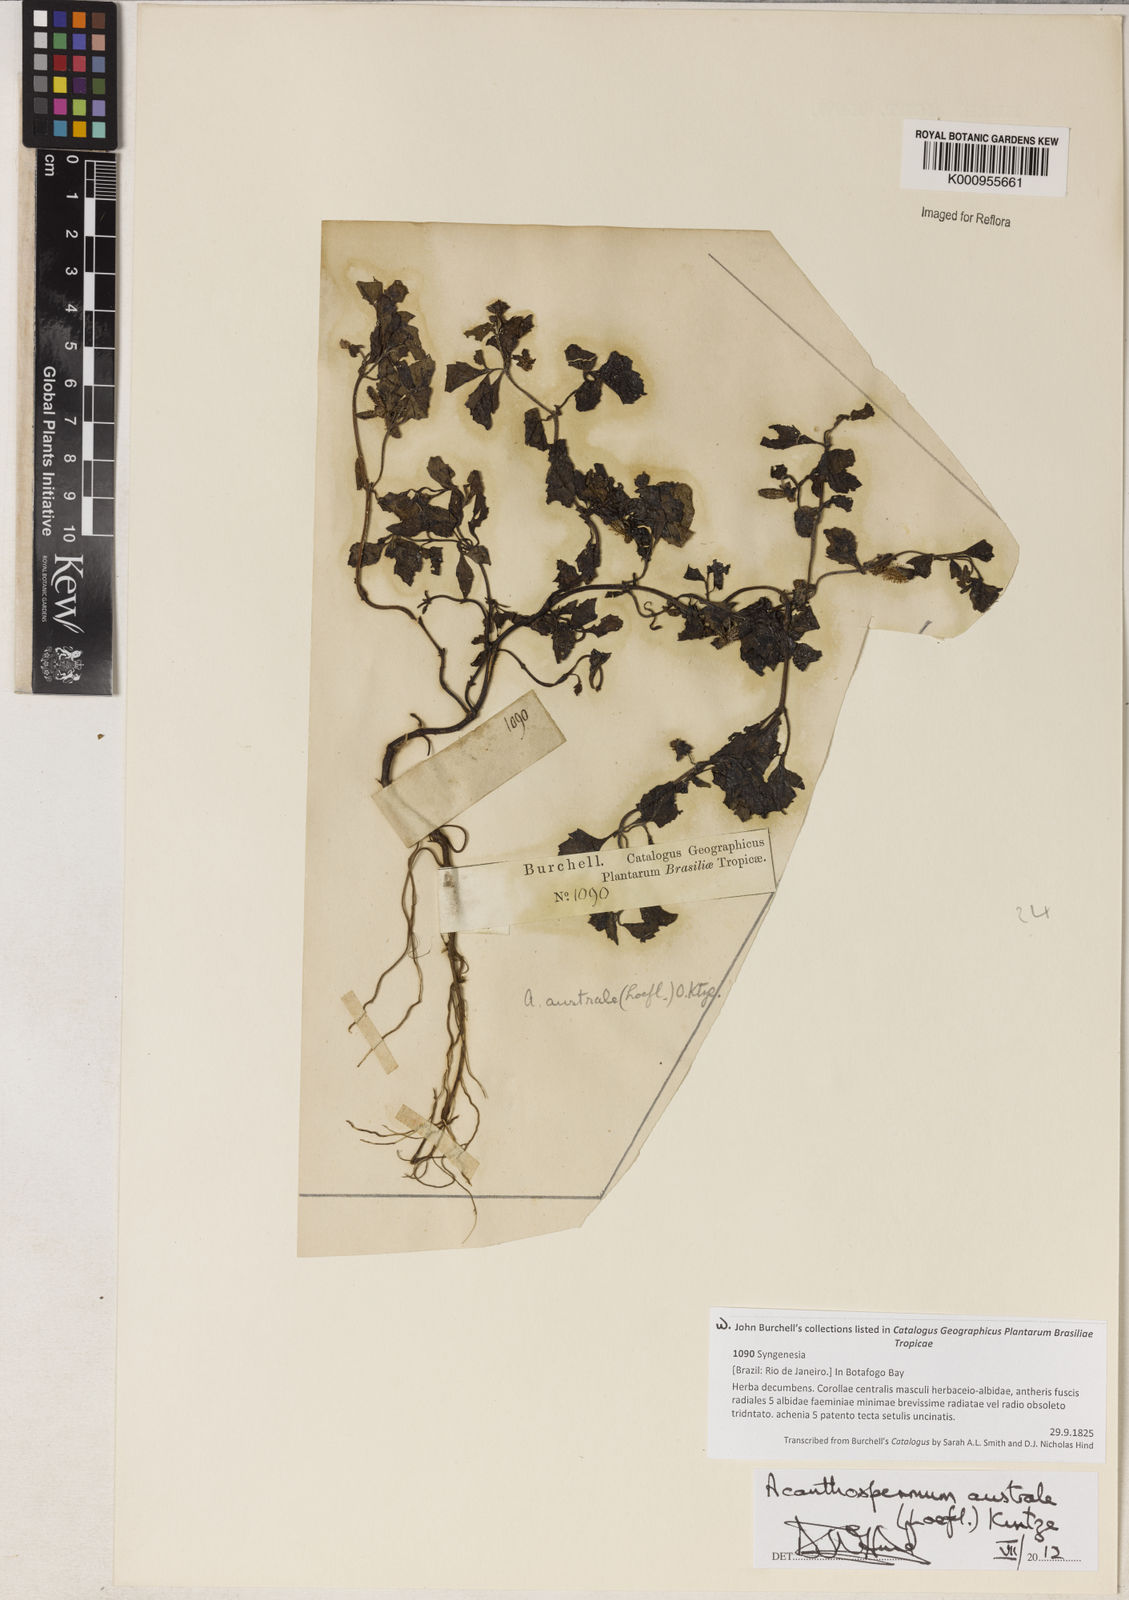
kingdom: Plantae
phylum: Tracheophyta
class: Magnoliopsida
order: Asterales
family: Asteraceae
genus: Acanthospermum
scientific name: Acanthospermum australe
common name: Paraguayan starbur
